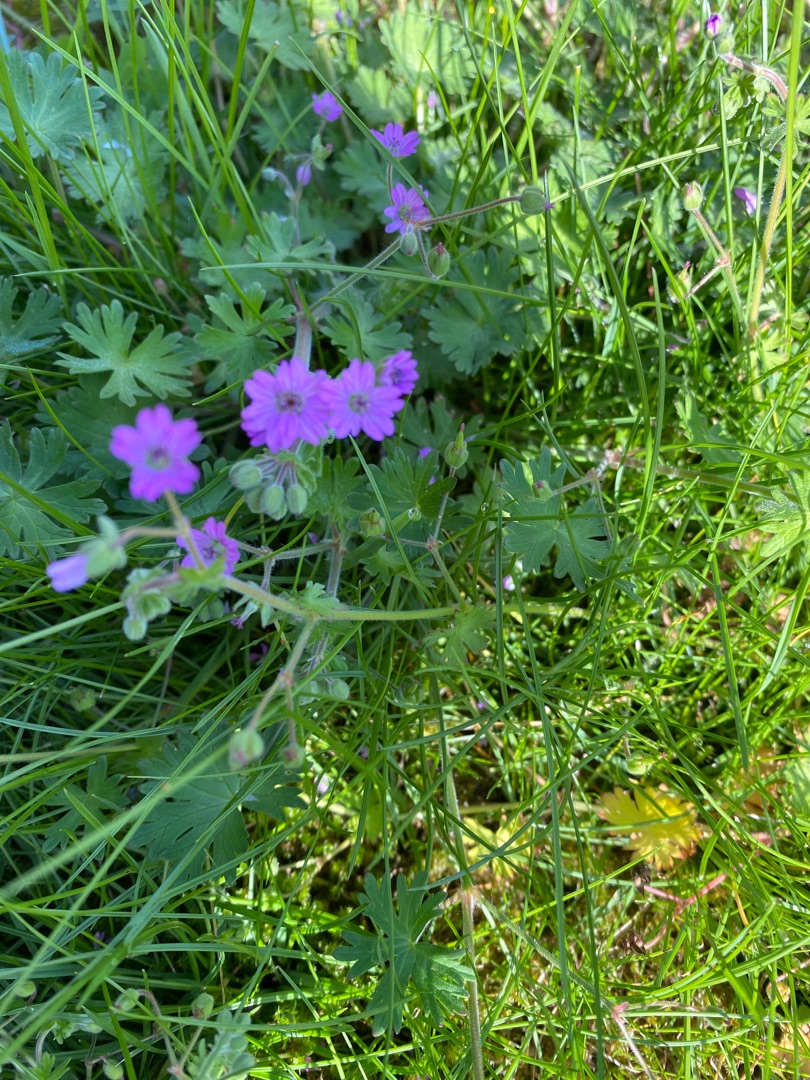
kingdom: Plantae
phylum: Tracheophyta
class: Magnoliopsida
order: Geraniales
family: Geraniaceae
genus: Geranium
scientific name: Geranium pyrenaicum
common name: Pyrenæisk storkenæb
